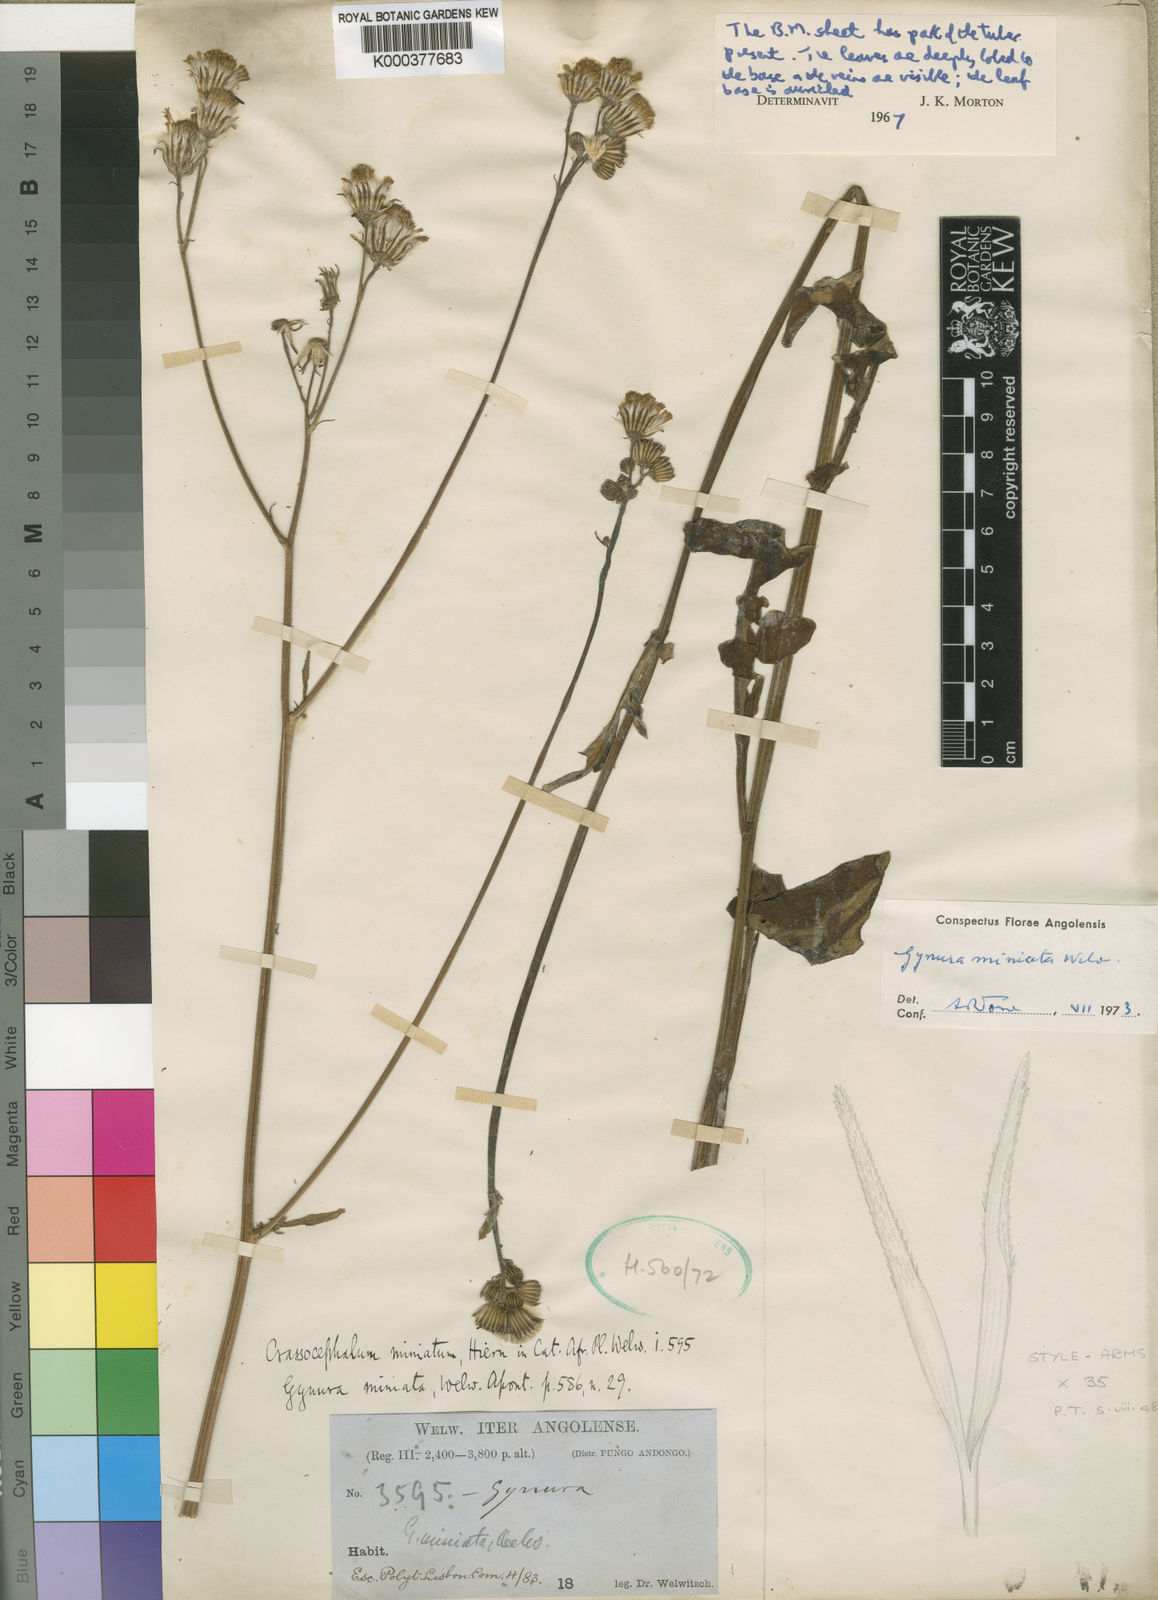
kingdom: Plantae
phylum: Tracheophyta
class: Magnoliopsida
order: Asterales
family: Asteraceae
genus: Gynura
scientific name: Gynura pseudochina
